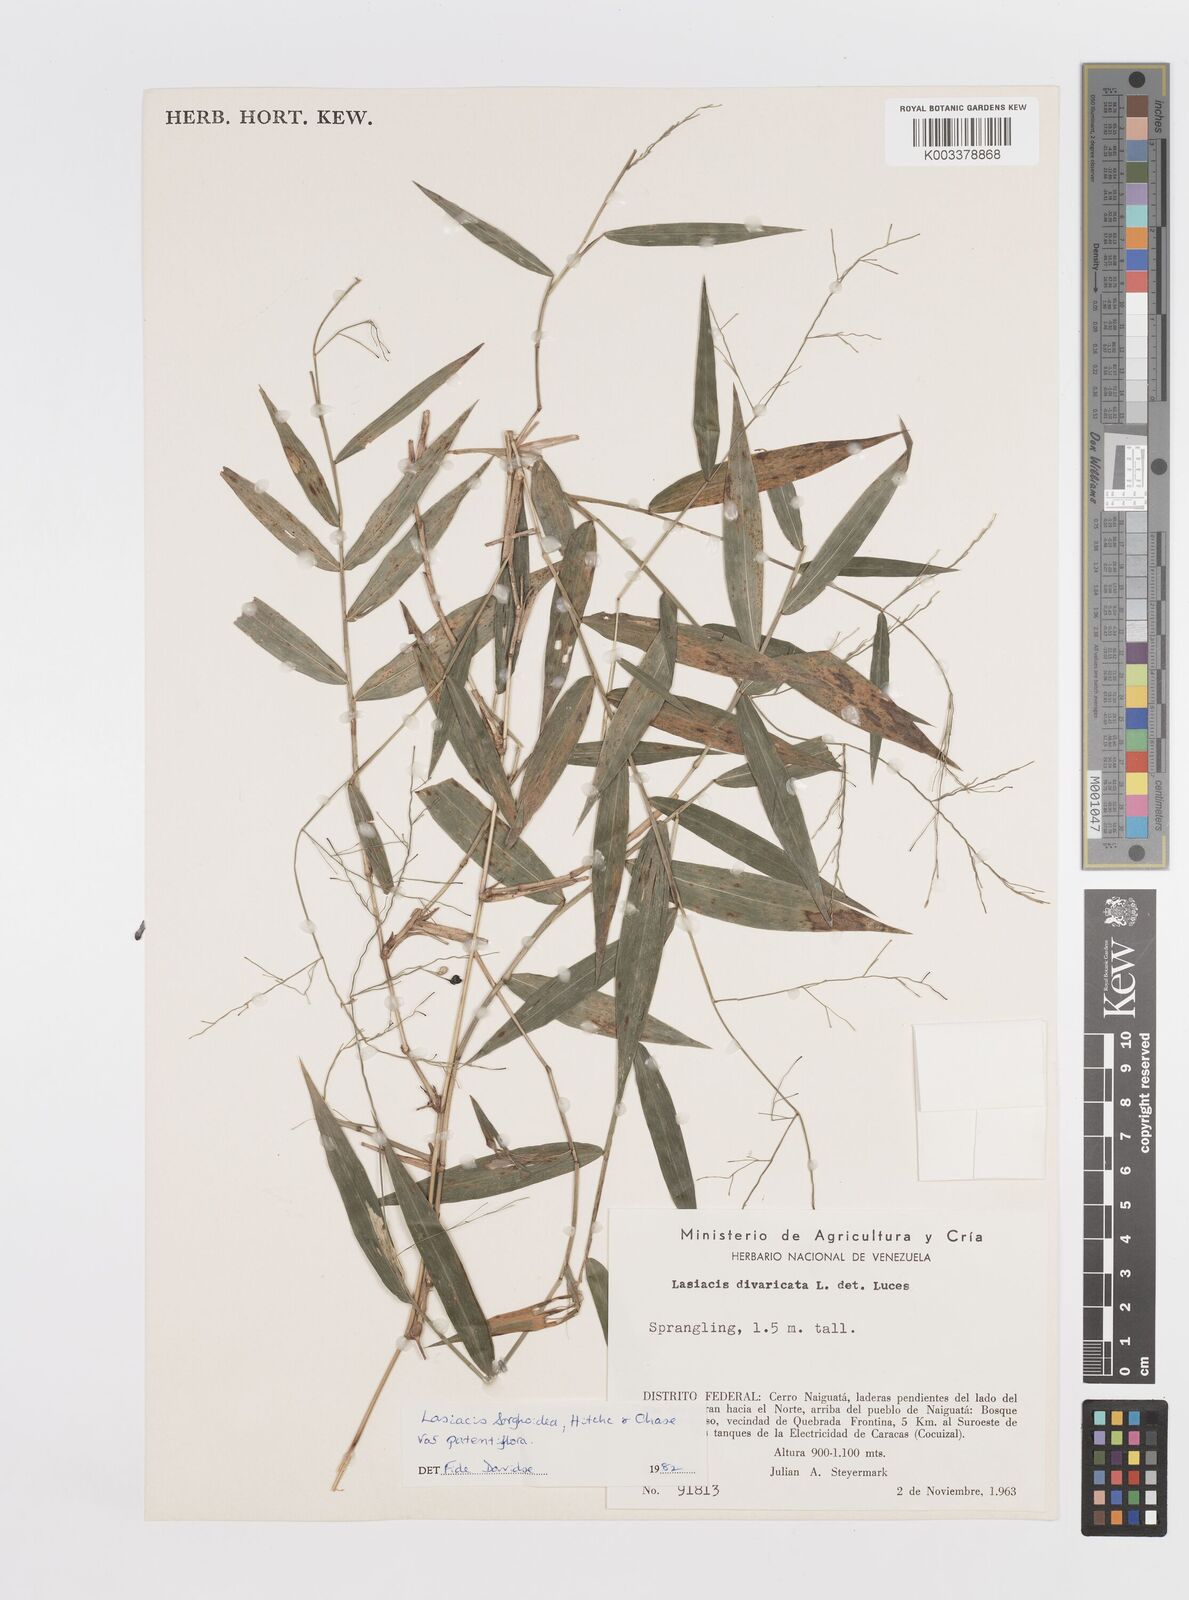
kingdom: Plantae
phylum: Tracheophyta
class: Liliopsida
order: Poales
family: Poaceae
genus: Lasiacis
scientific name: Lasiacis maculata
